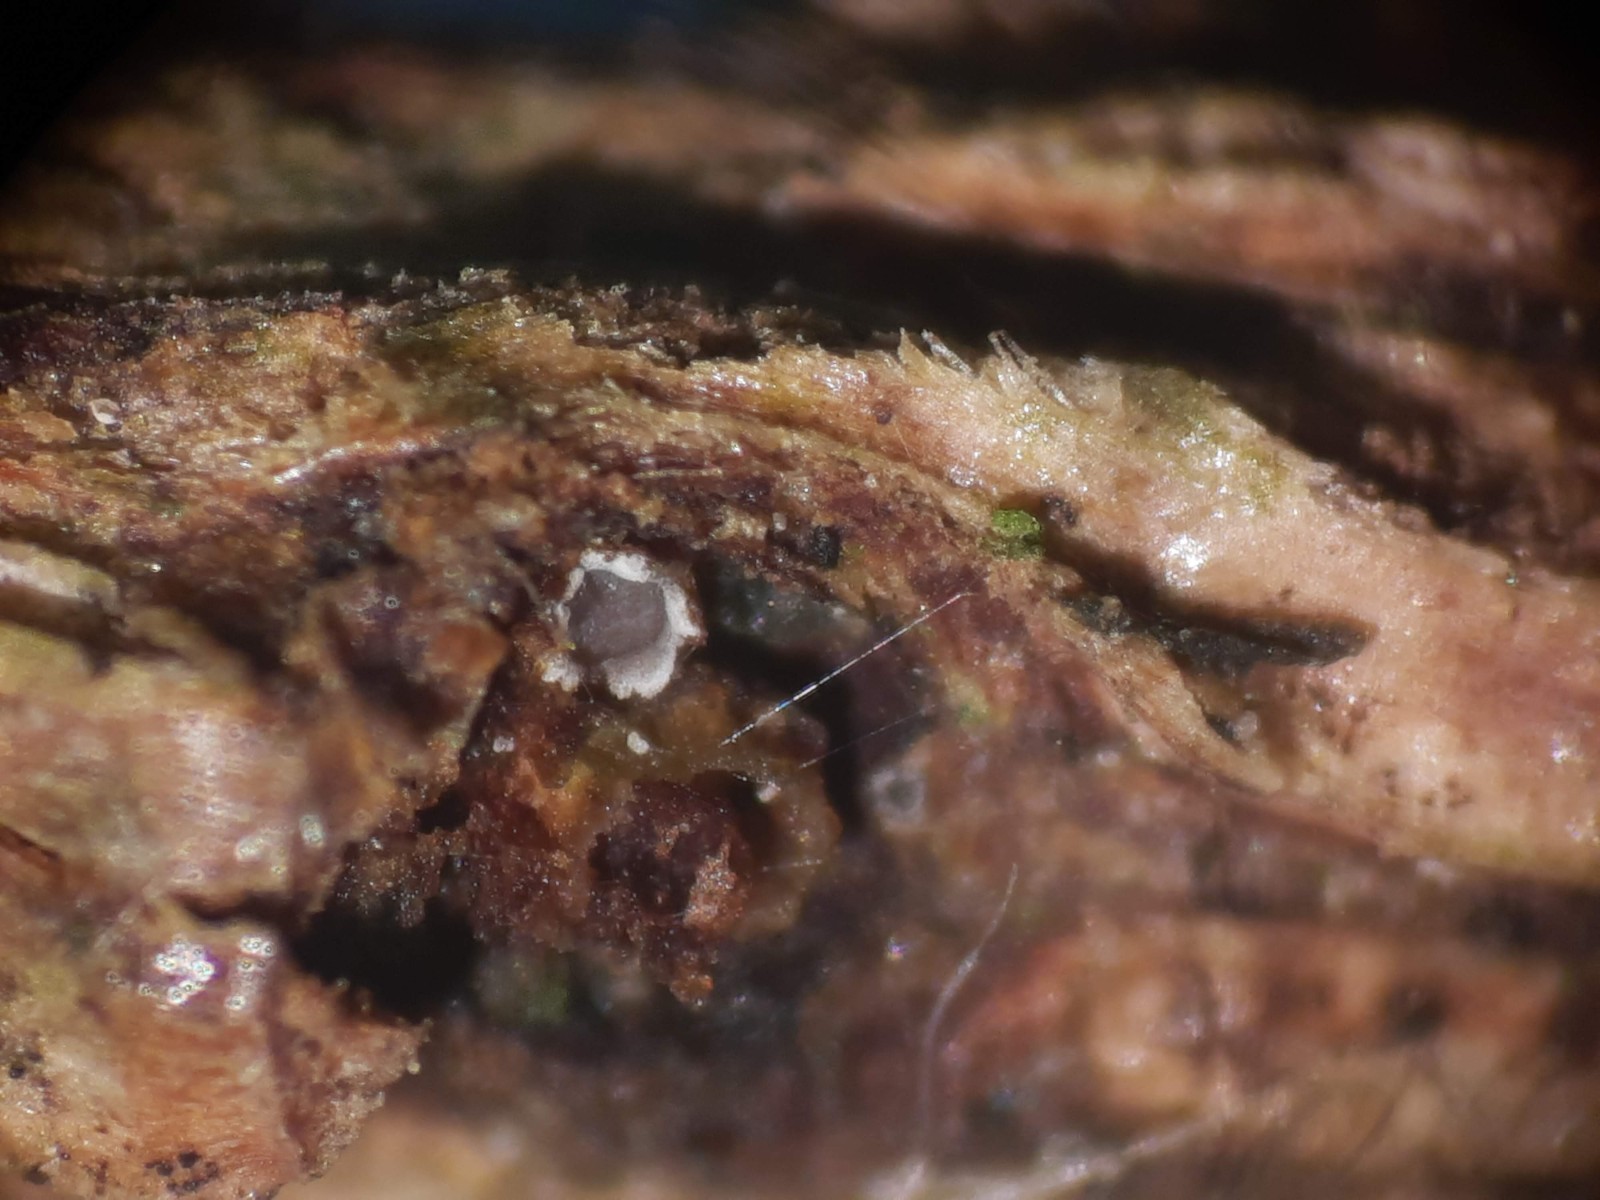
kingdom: Fungi
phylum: Ascomycota
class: Lecanoromycetes
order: Ostropales
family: Stictidaceae
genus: Karstenia
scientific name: Karstenia rhopaloides
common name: grårosa barkhul
